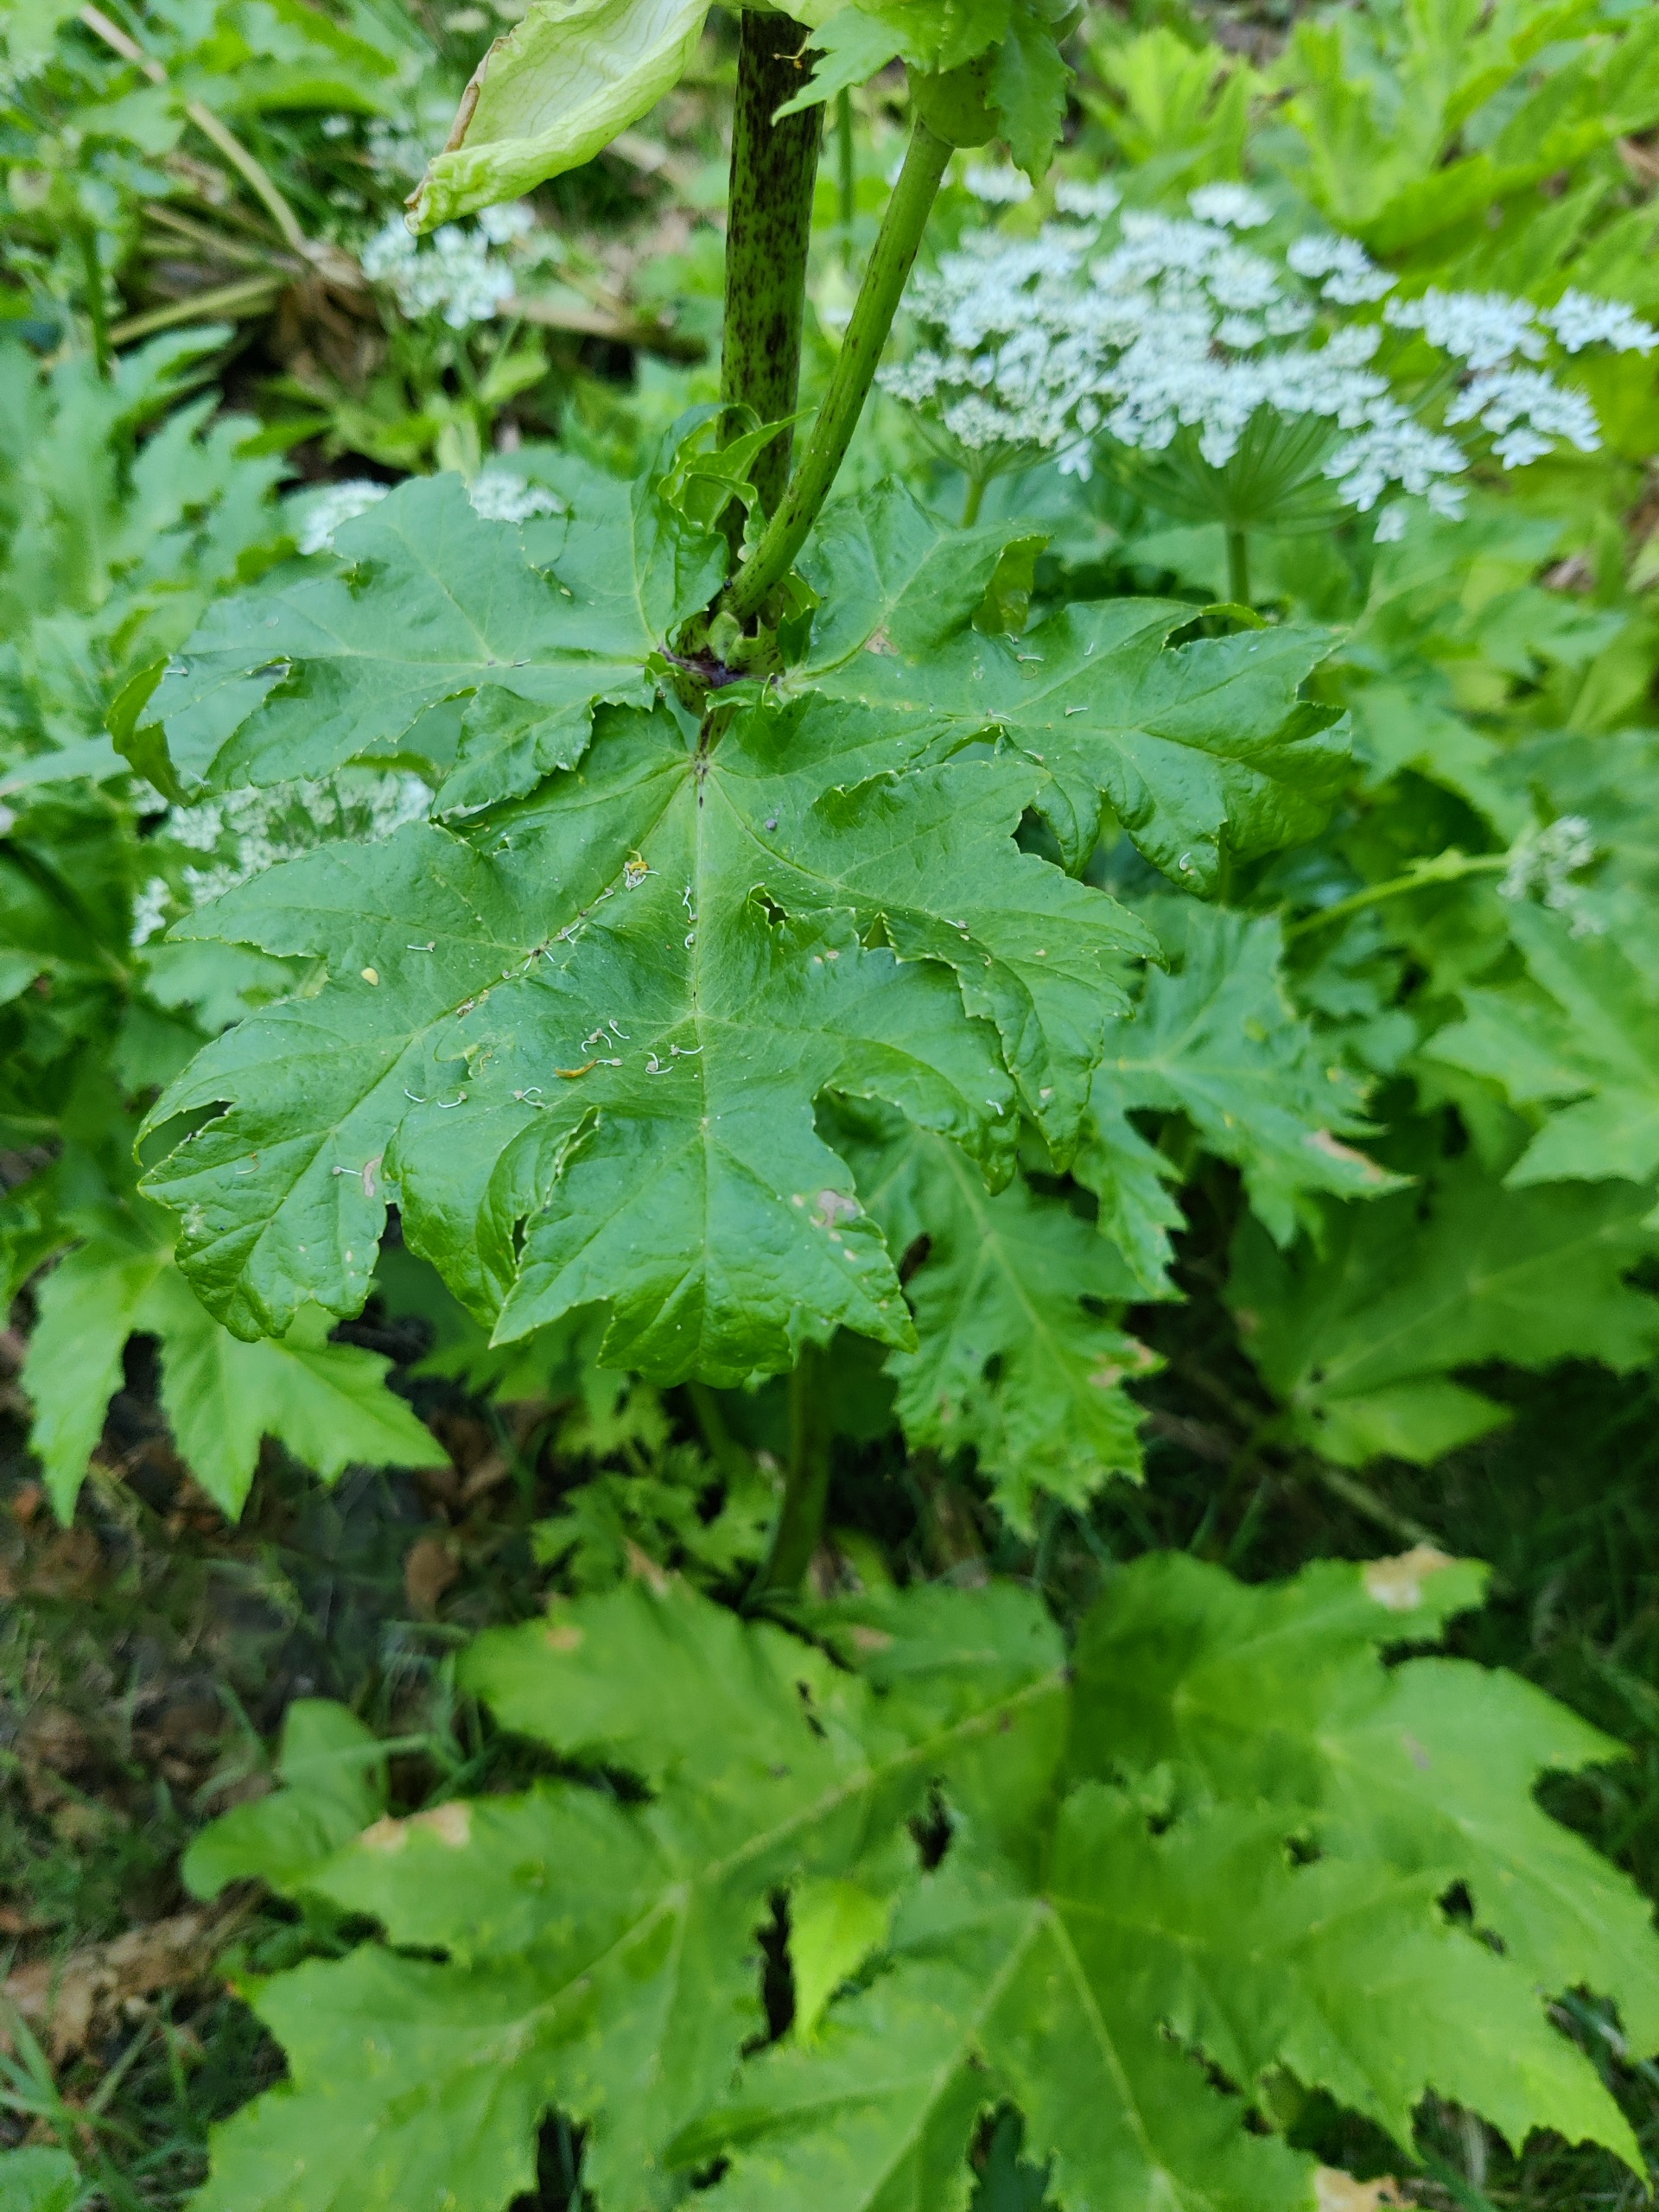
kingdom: Plantae
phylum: Tracheophyta
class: Magnoliopsida
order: Apiales
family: Apiaceae
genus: Heracleum
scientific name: Heracleum mantegazzianum
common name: Kæmpe-bjørneklo
